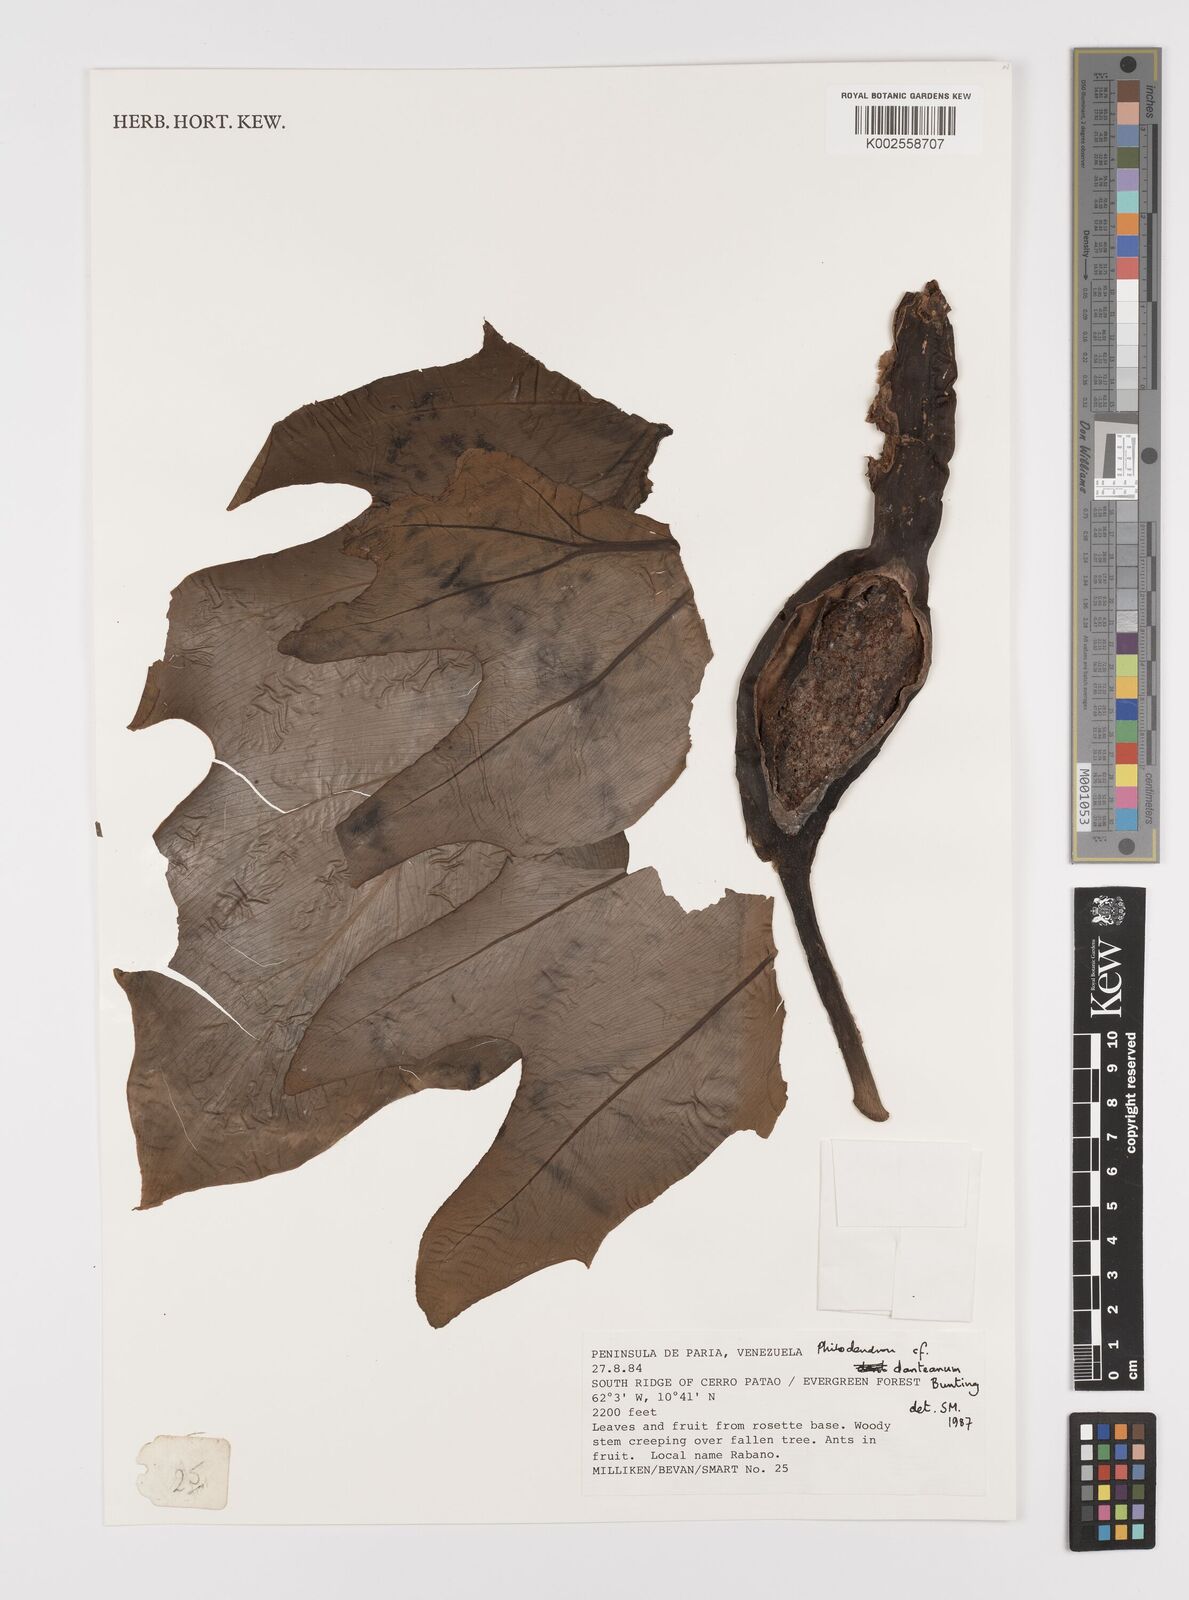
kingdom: Plantae
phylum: Tracheophyta
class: Liliopsida
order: Alismatales
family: Araceae
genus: Philodendron
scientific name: Philodendron danteanum
